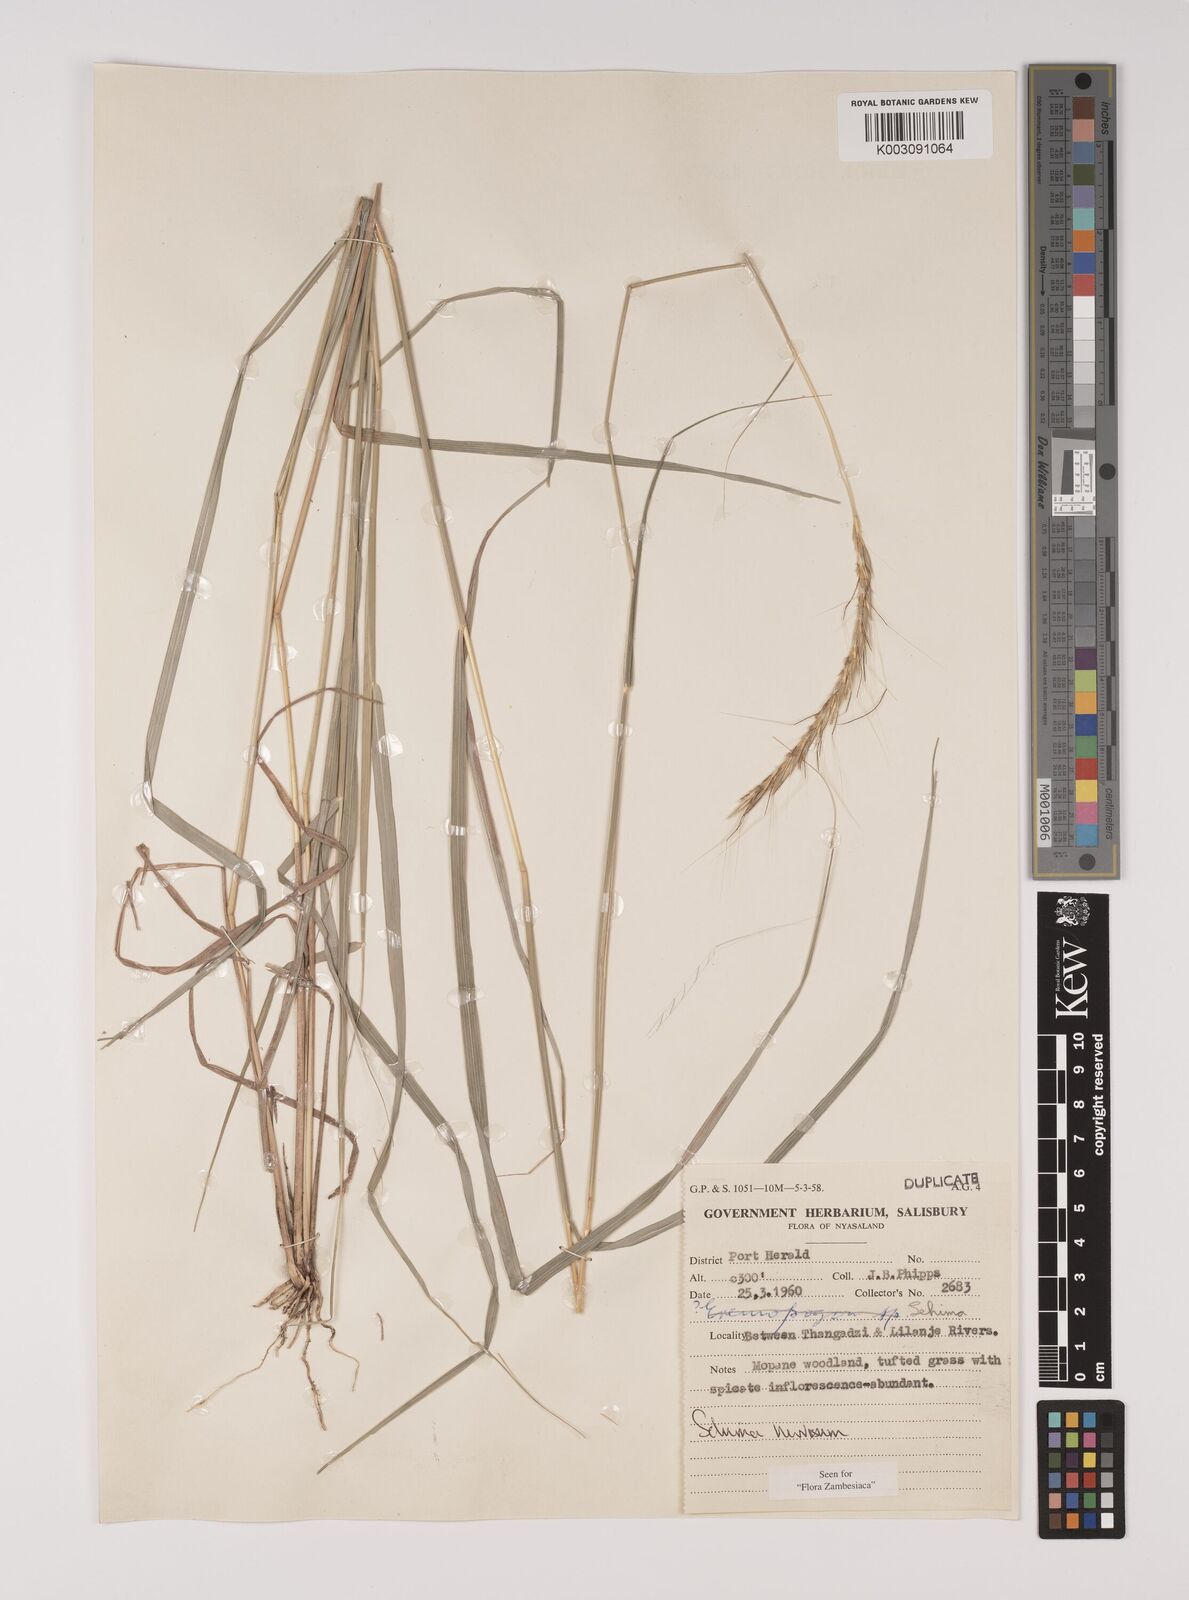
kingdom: Plantae
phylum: Tracheophyta
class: Liliopsida
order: Poales
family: Poaceae
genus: Sehima
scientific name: Sehima nervosa
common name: Rat-tail grass
